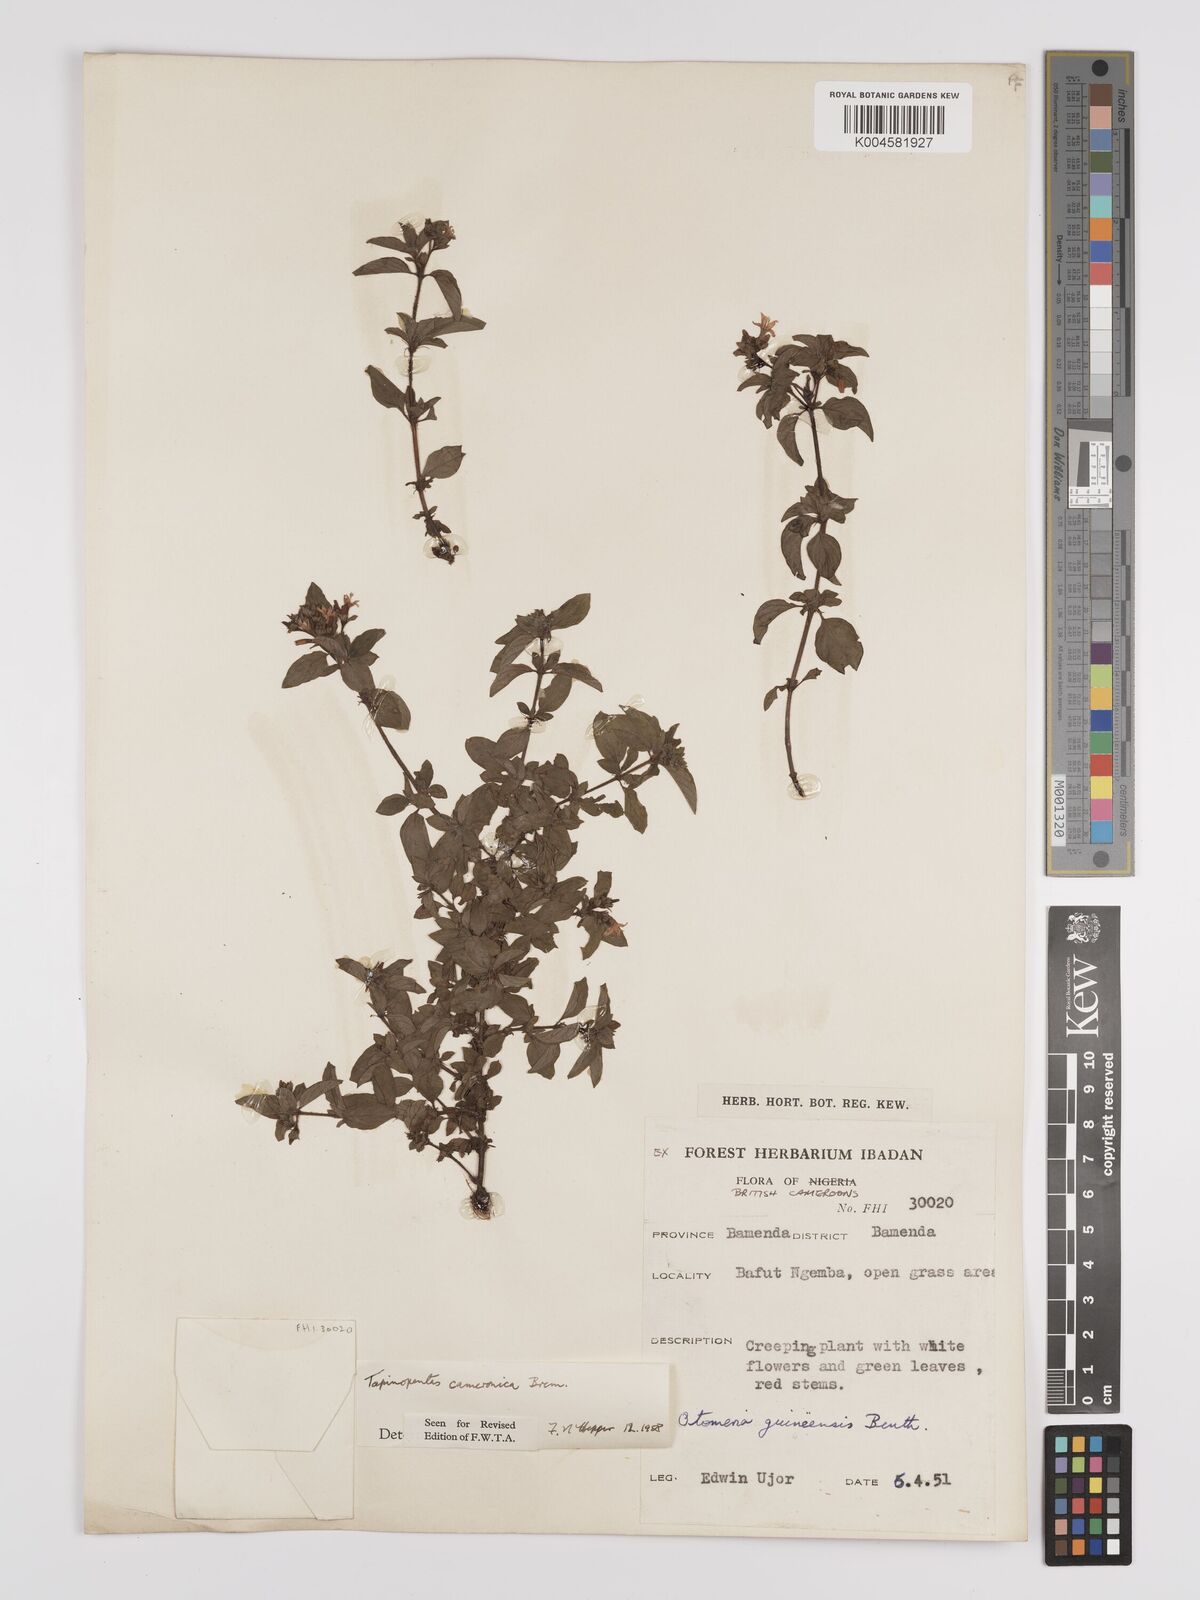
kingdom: Plantae
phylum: Tracheophyta
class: Magnoliopsida
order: Gentianales
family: Rubiaceae
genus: Otomeria
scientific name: Otomeria cameronica
